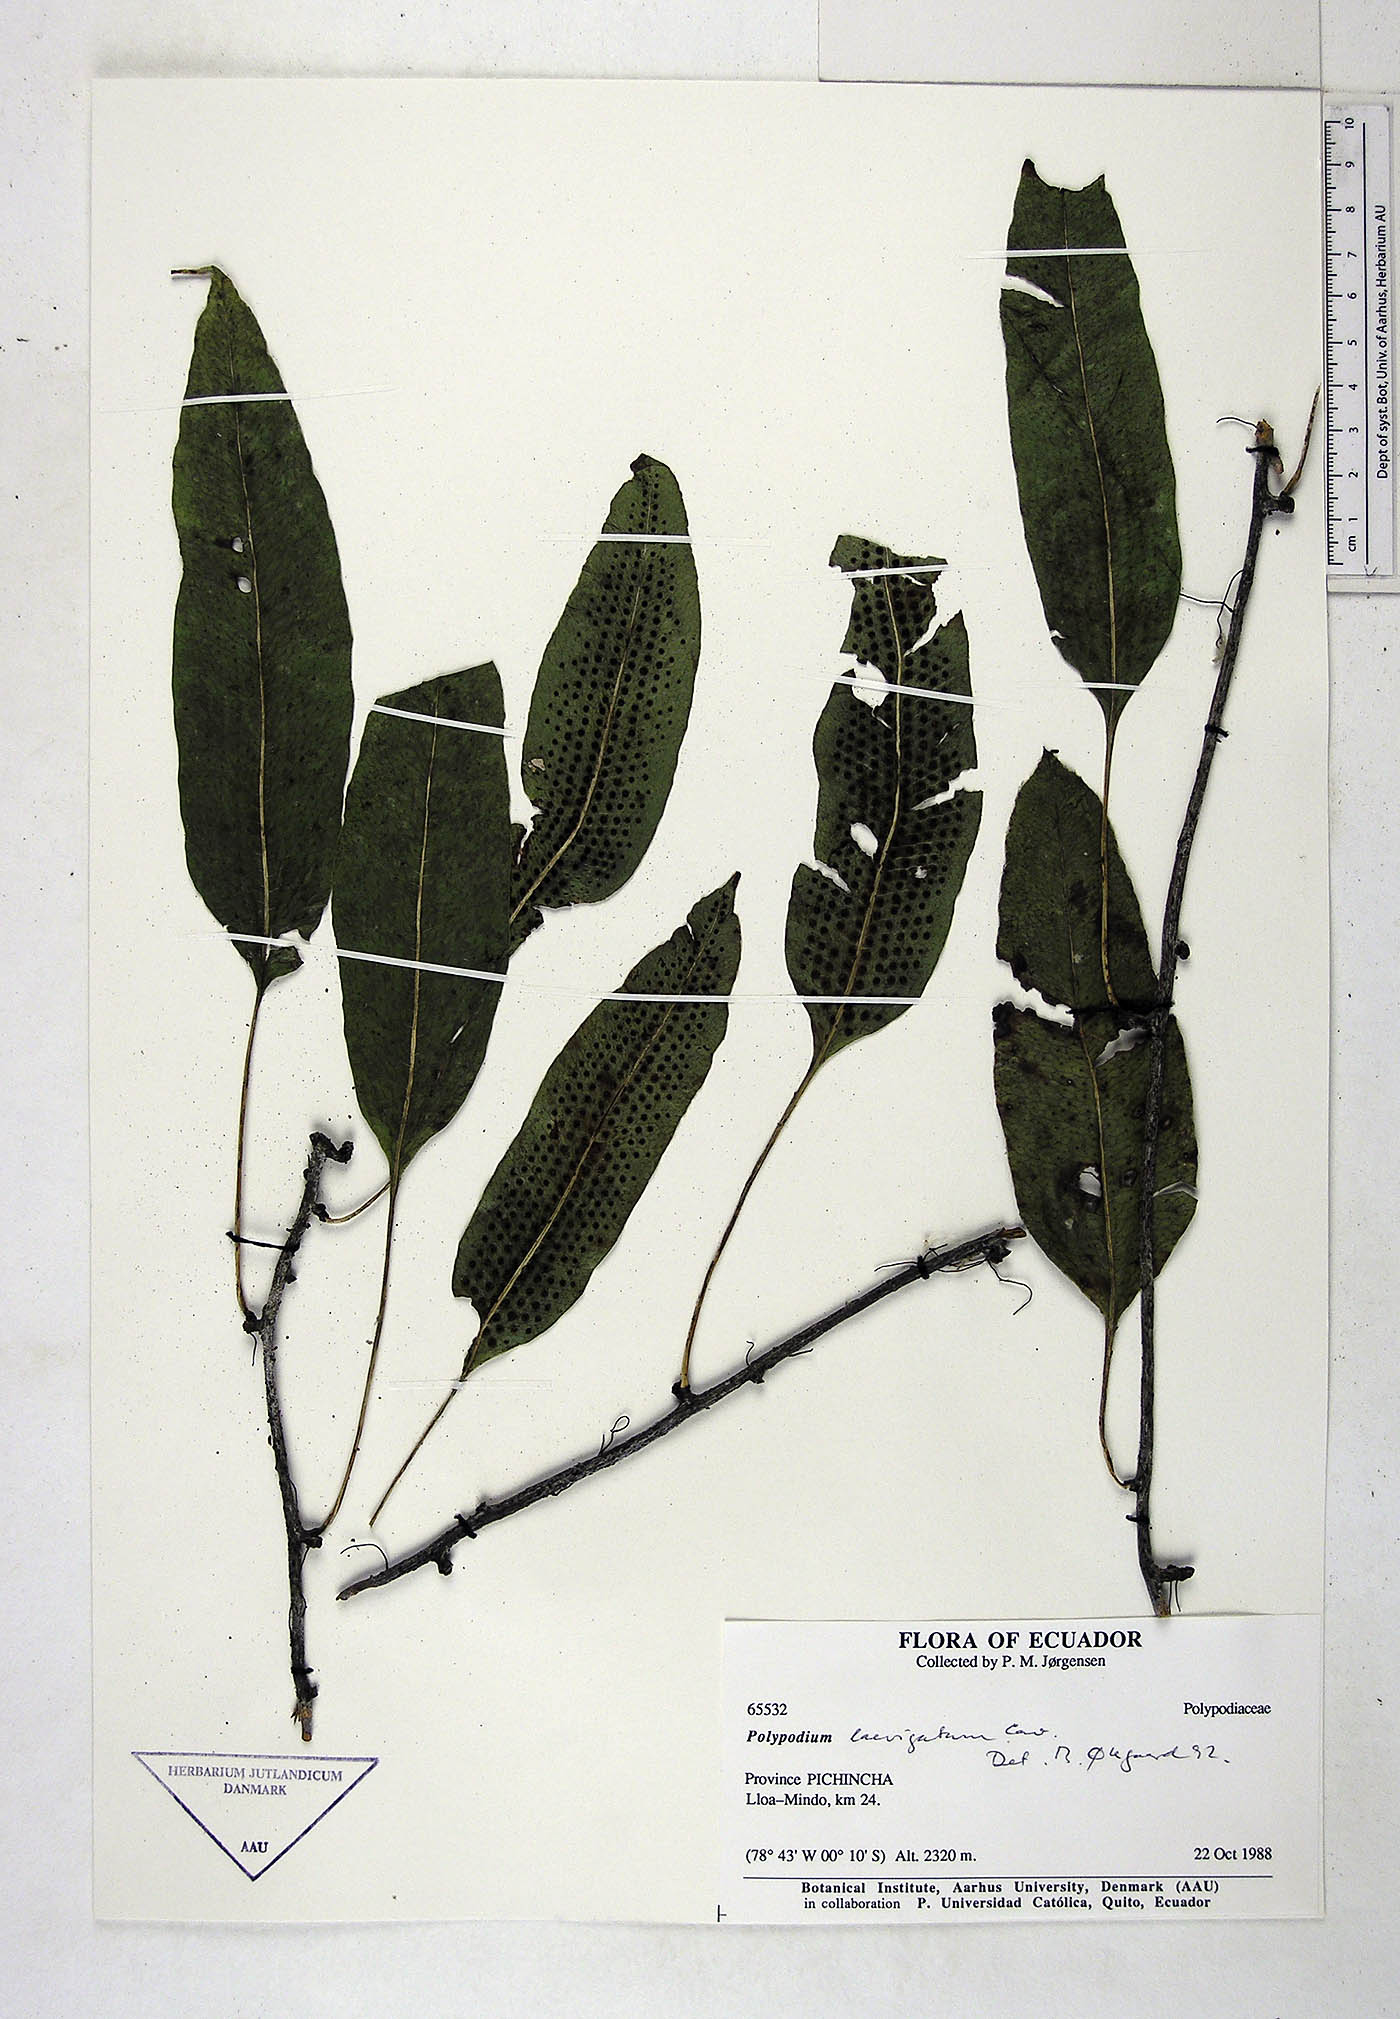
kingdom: Plantae
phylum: Tracheophyta
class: Polypodiopsida
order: Polypodiales
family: Polypodiaceae
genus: Serpocaulon
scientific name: Serpocaulon laevigatum
